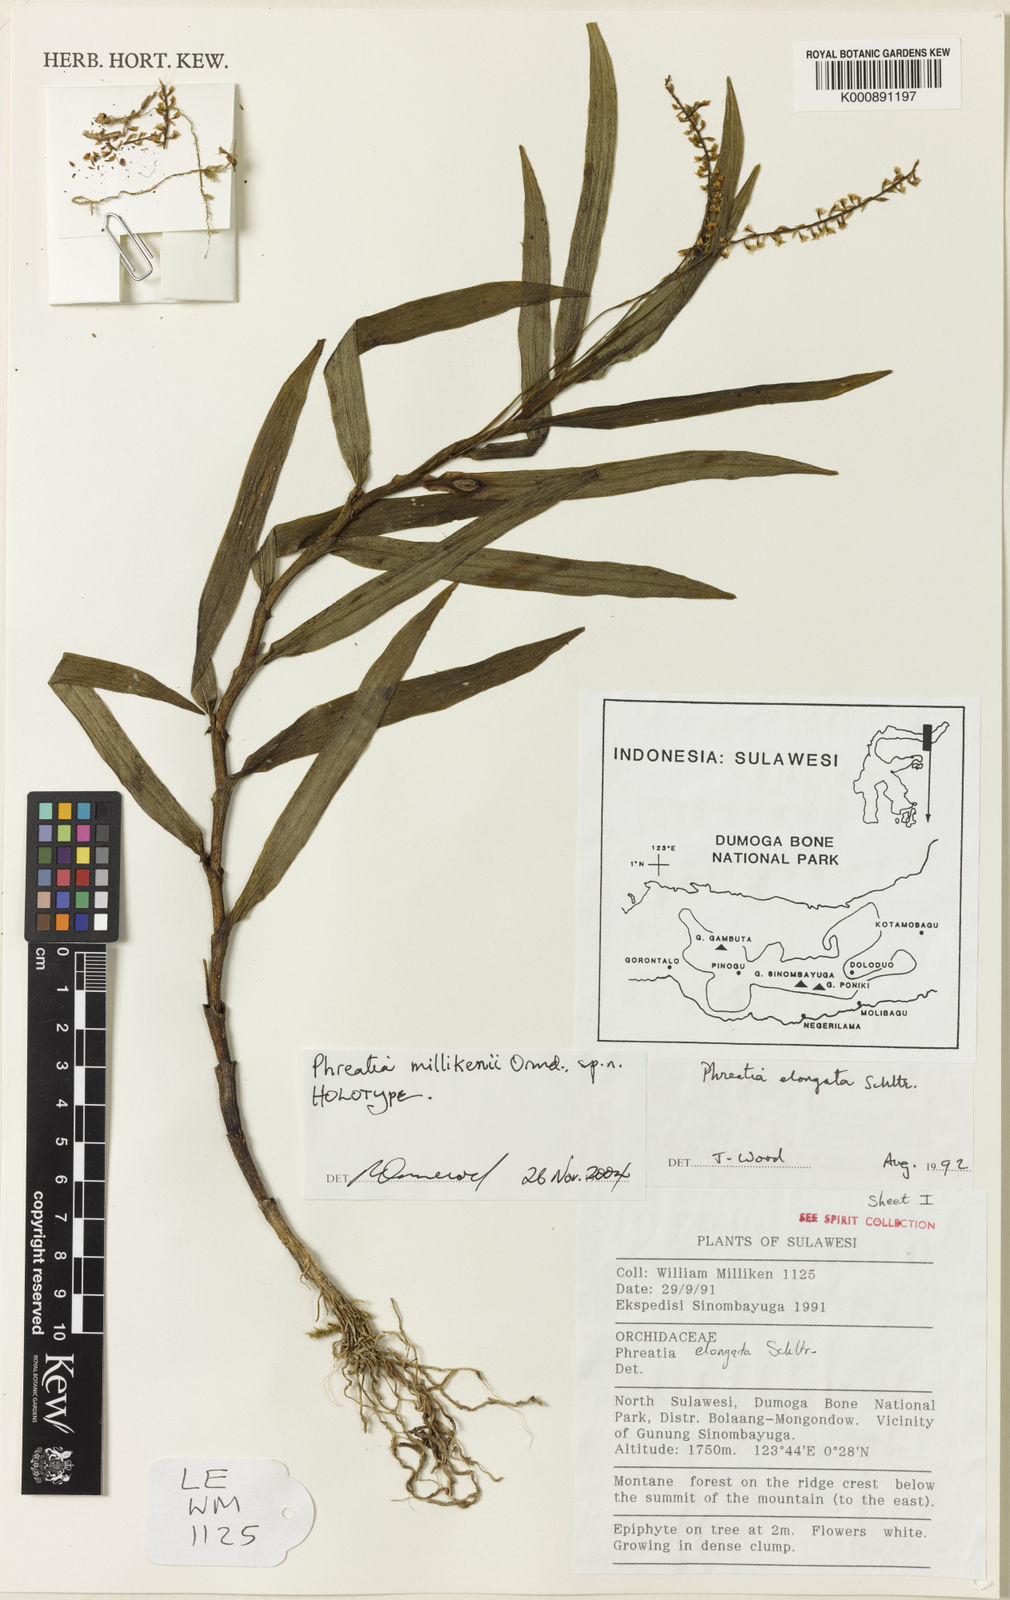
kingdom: Plantae
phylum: Tracheophyta
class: Liliopsida
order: Asparagales
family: Orchidaceae
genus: Phreatia
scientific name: Phreatia millikenii
